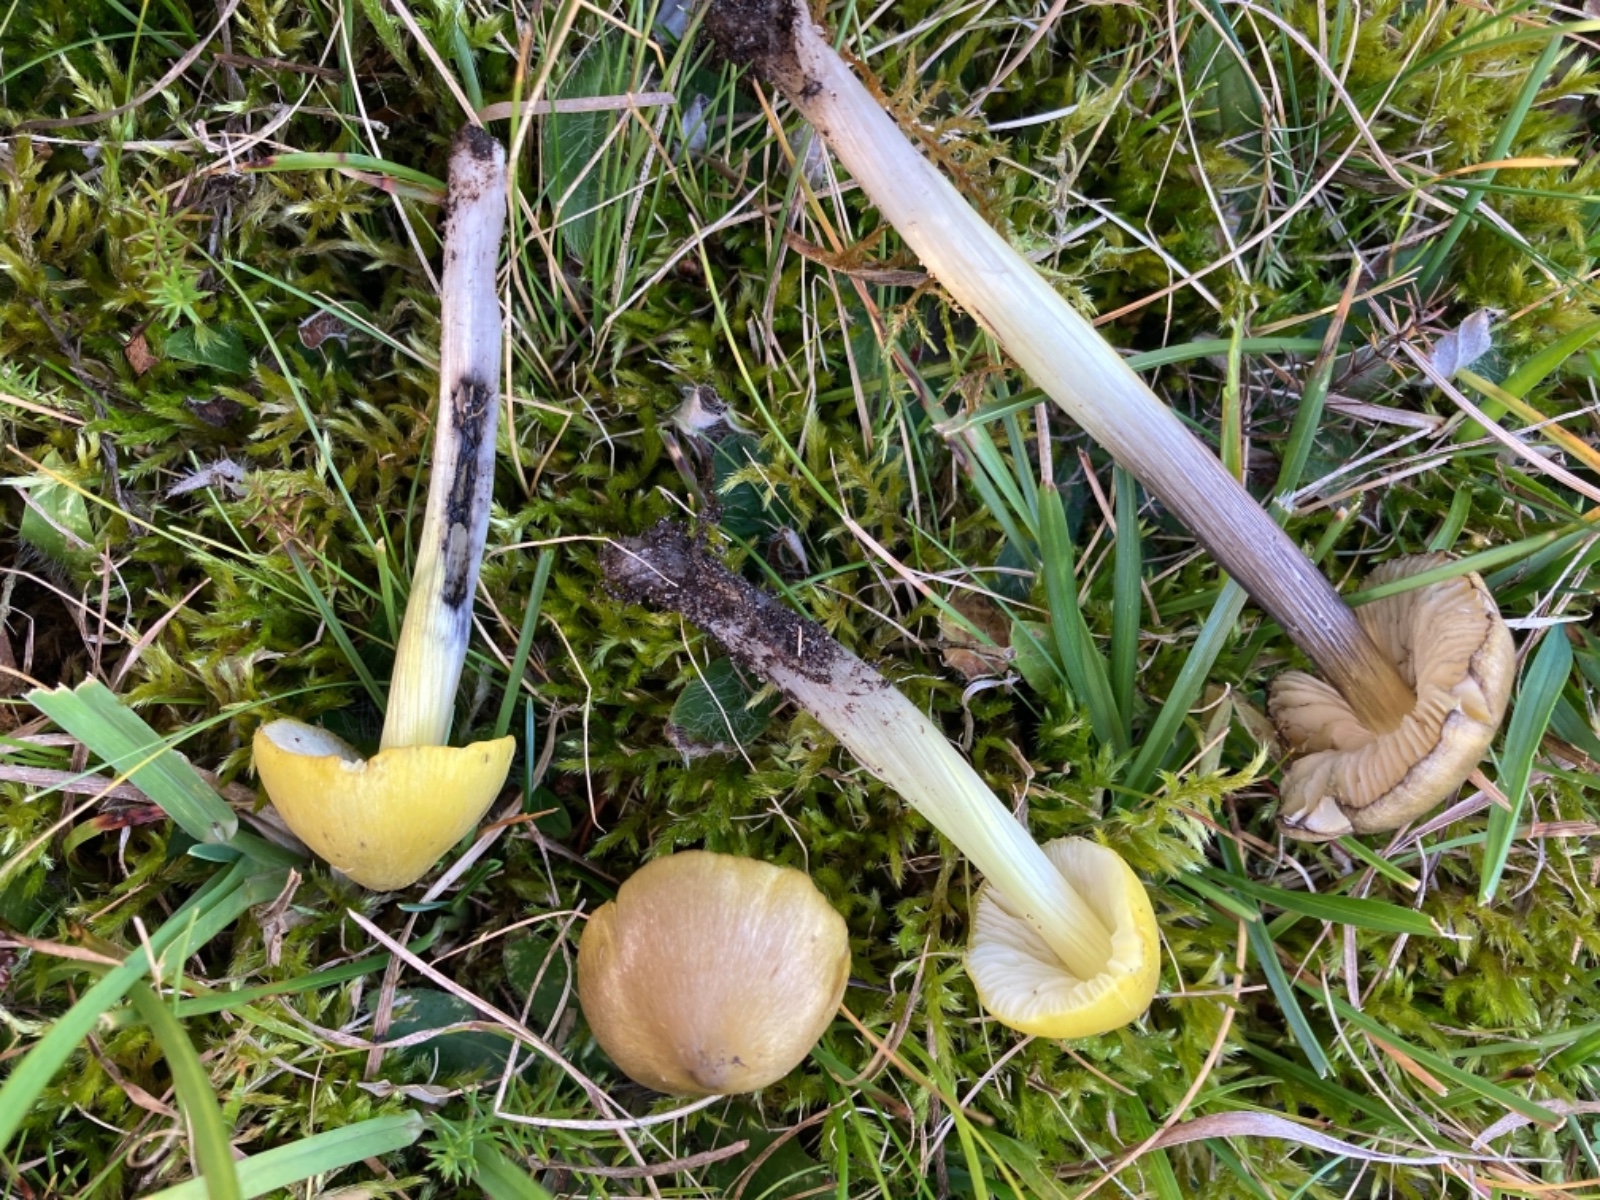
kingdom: Fungi
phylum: Basidiomycota
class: Agaricomycetes
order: Agaricales
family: Hygrophoraceae
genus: Hygrocybe
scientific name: Hygrocybe conica
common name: Blackening wax-cap
